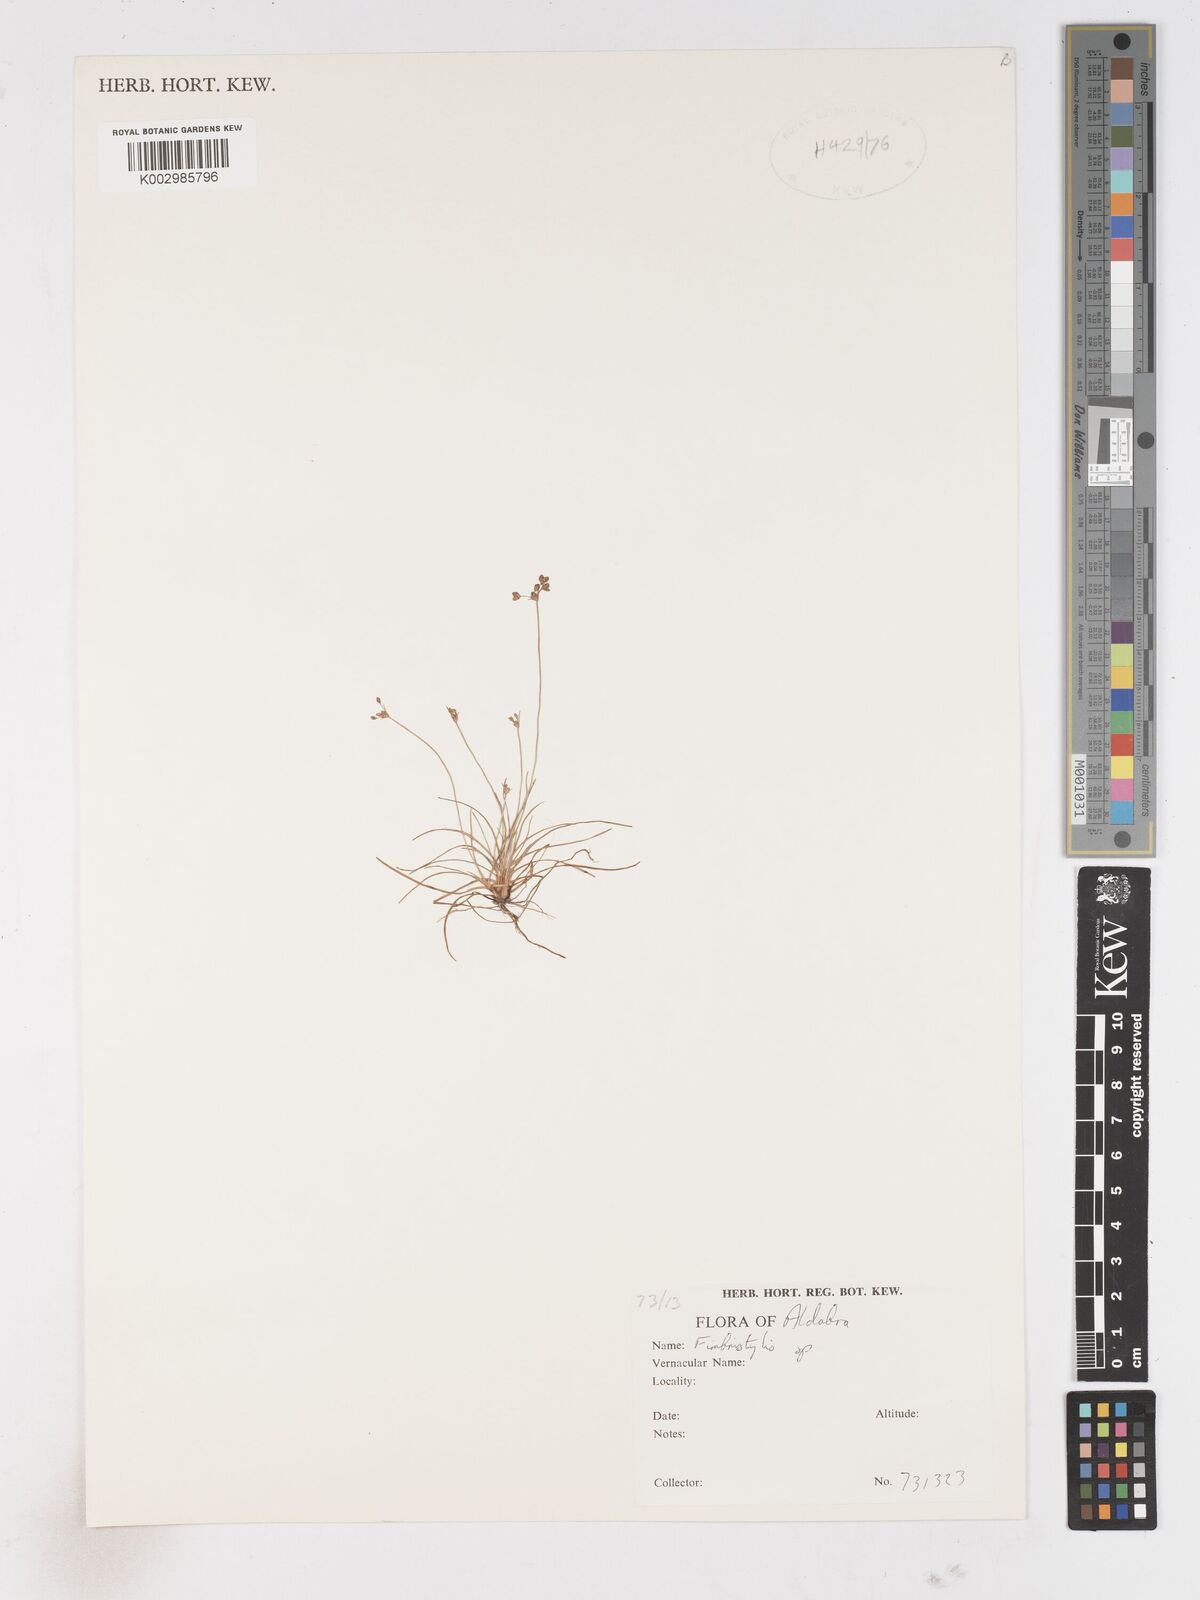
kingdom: Plantae
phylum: Tracheophyta
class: Liliopsida
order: Poales
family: Cyperaceae
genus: Fimbristylis
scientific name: Fimbristylis
